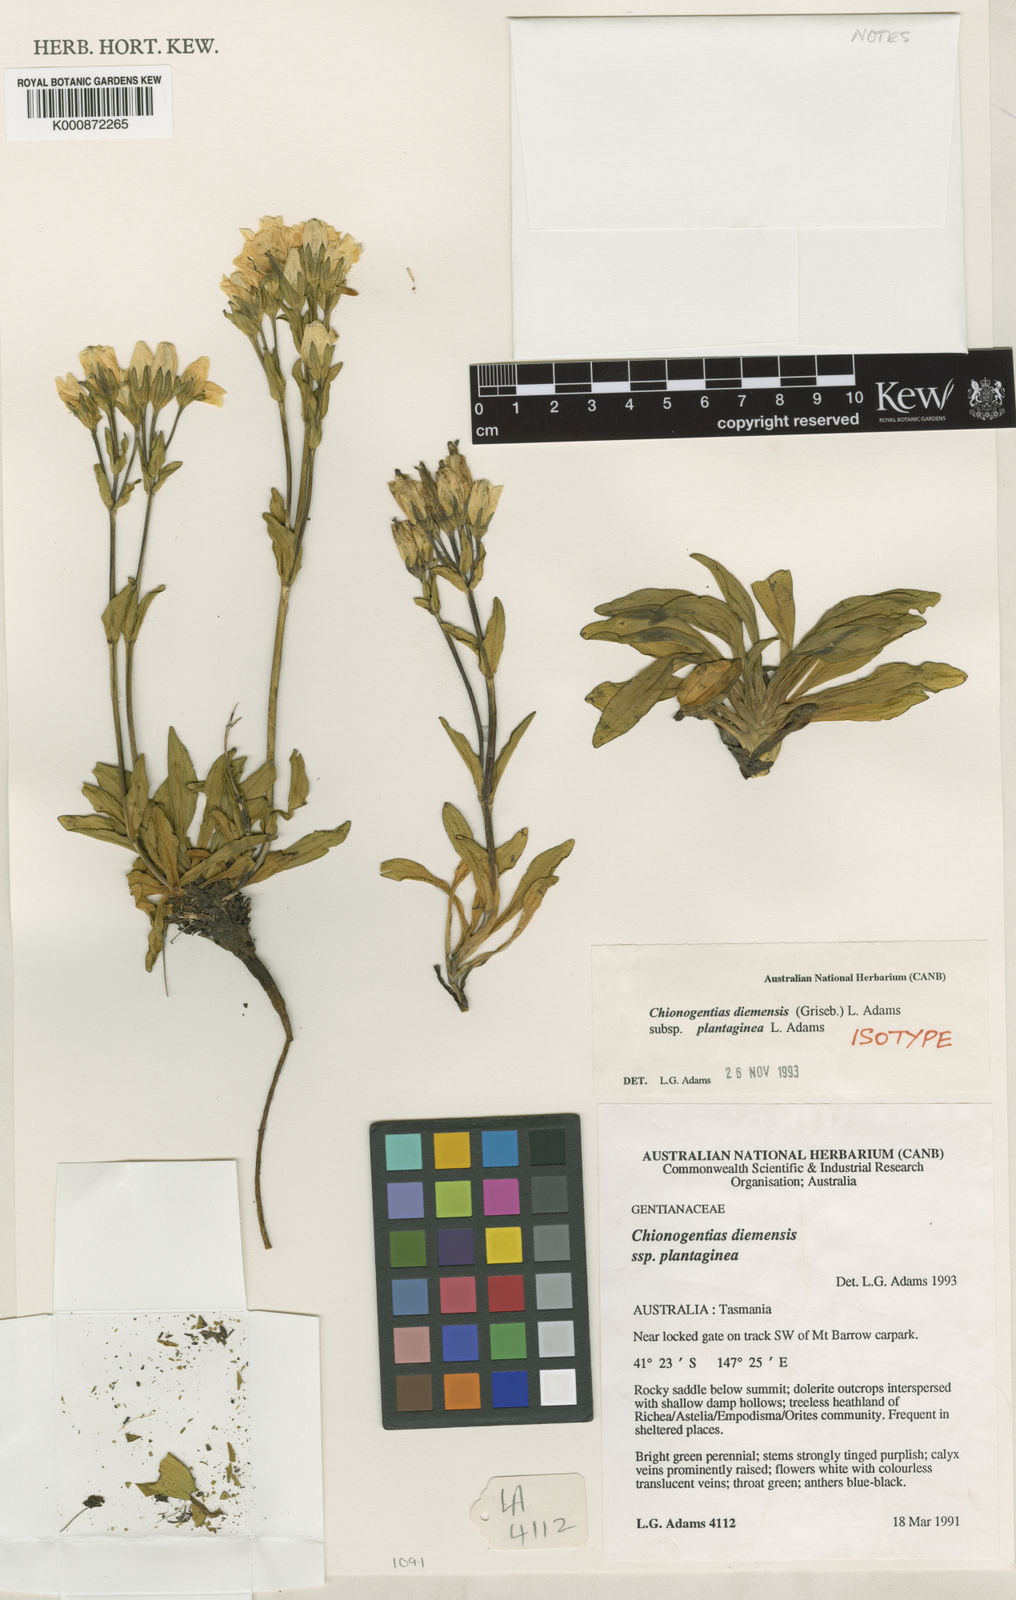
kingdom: Plantae
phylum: Tracheophyta
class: Magnoliopsida
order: Gentianales
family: Gentianaceae
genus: Gentianella
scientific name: Gentianella diemensis
